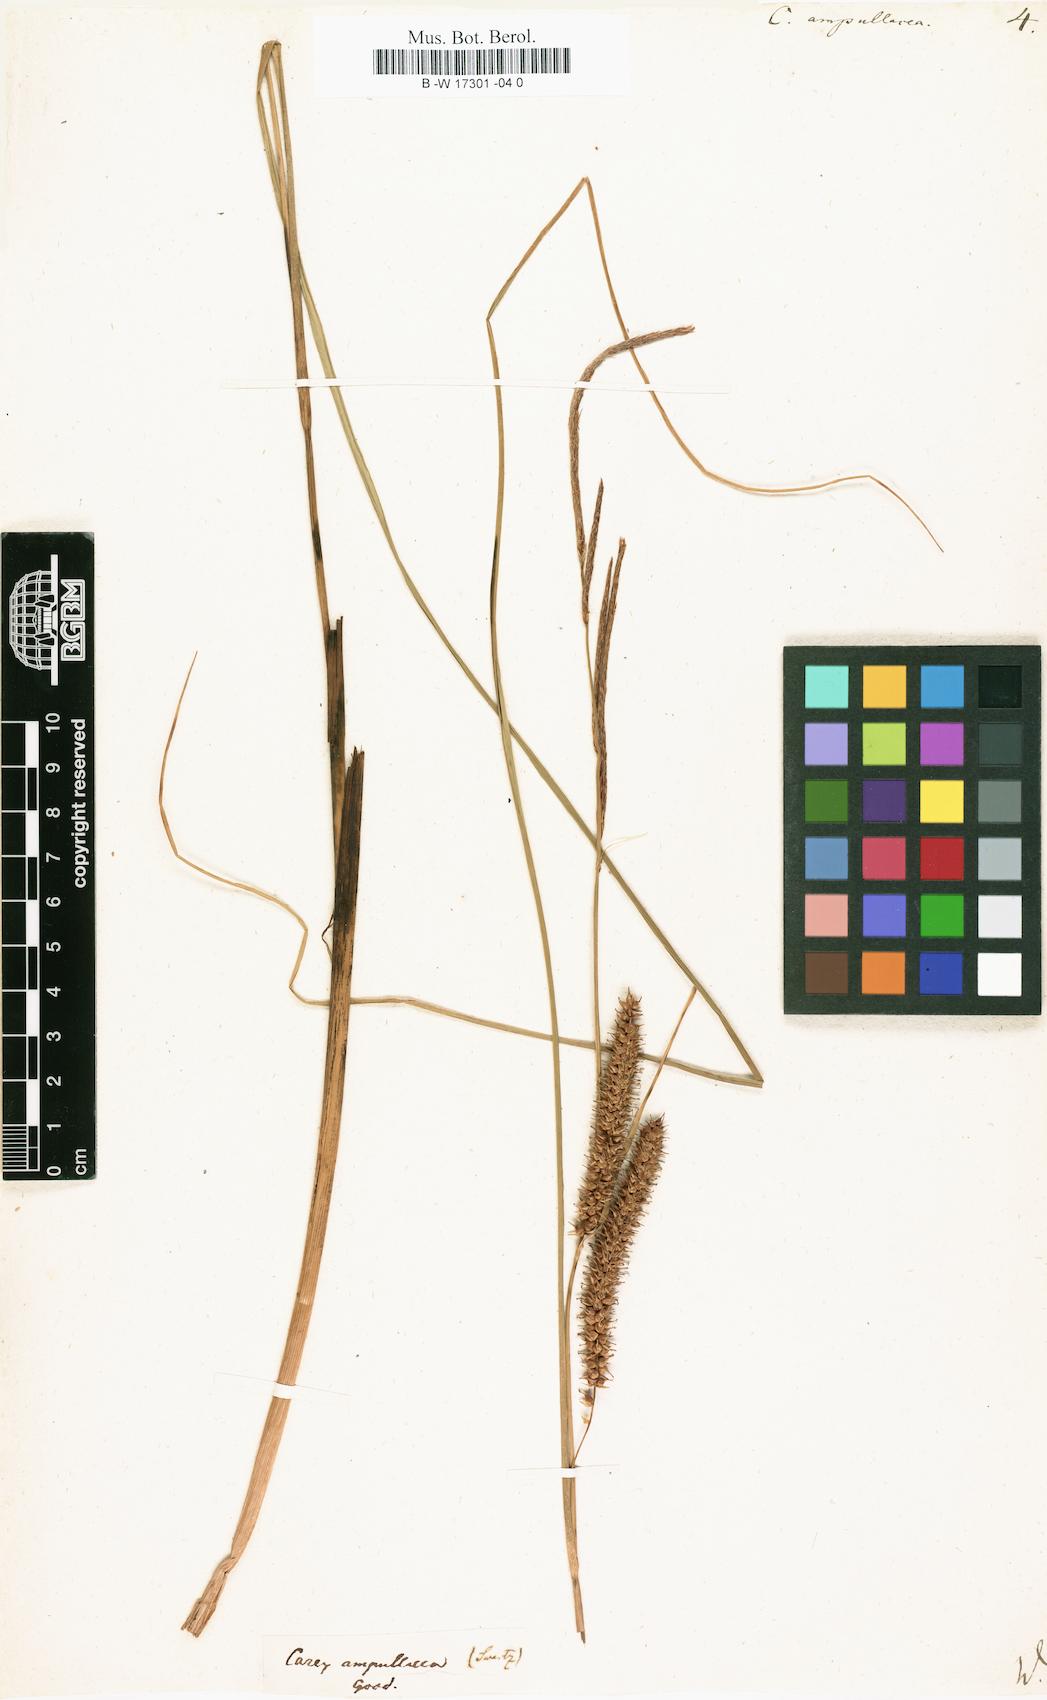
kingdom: Plantae
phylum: Tracheophyta
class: Liliopsida
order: Poales
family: Cyperaceae
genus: Carex
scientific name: Carex rostrata
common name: Bottle sedge
